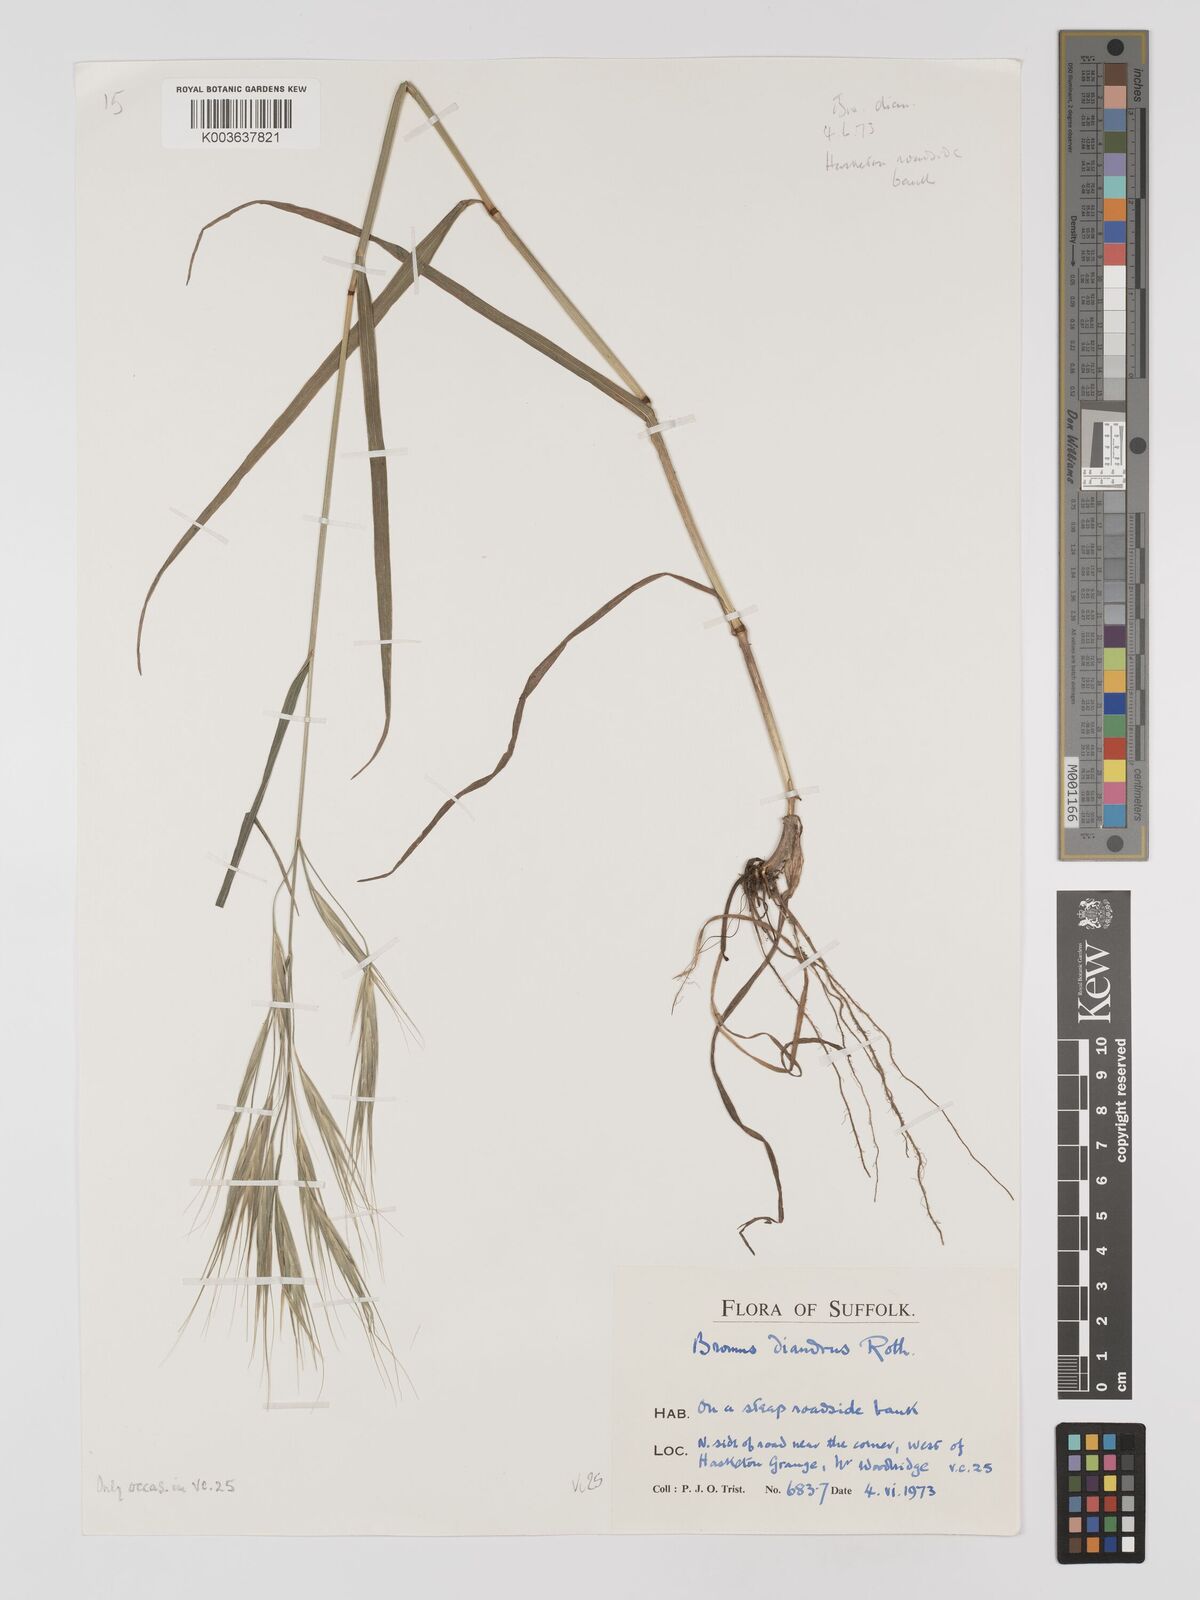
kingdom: Plantae
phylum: Tracheophyta
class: Liliopsida
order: Poales
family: Poaceae
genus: Bromus
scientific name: Bromus
